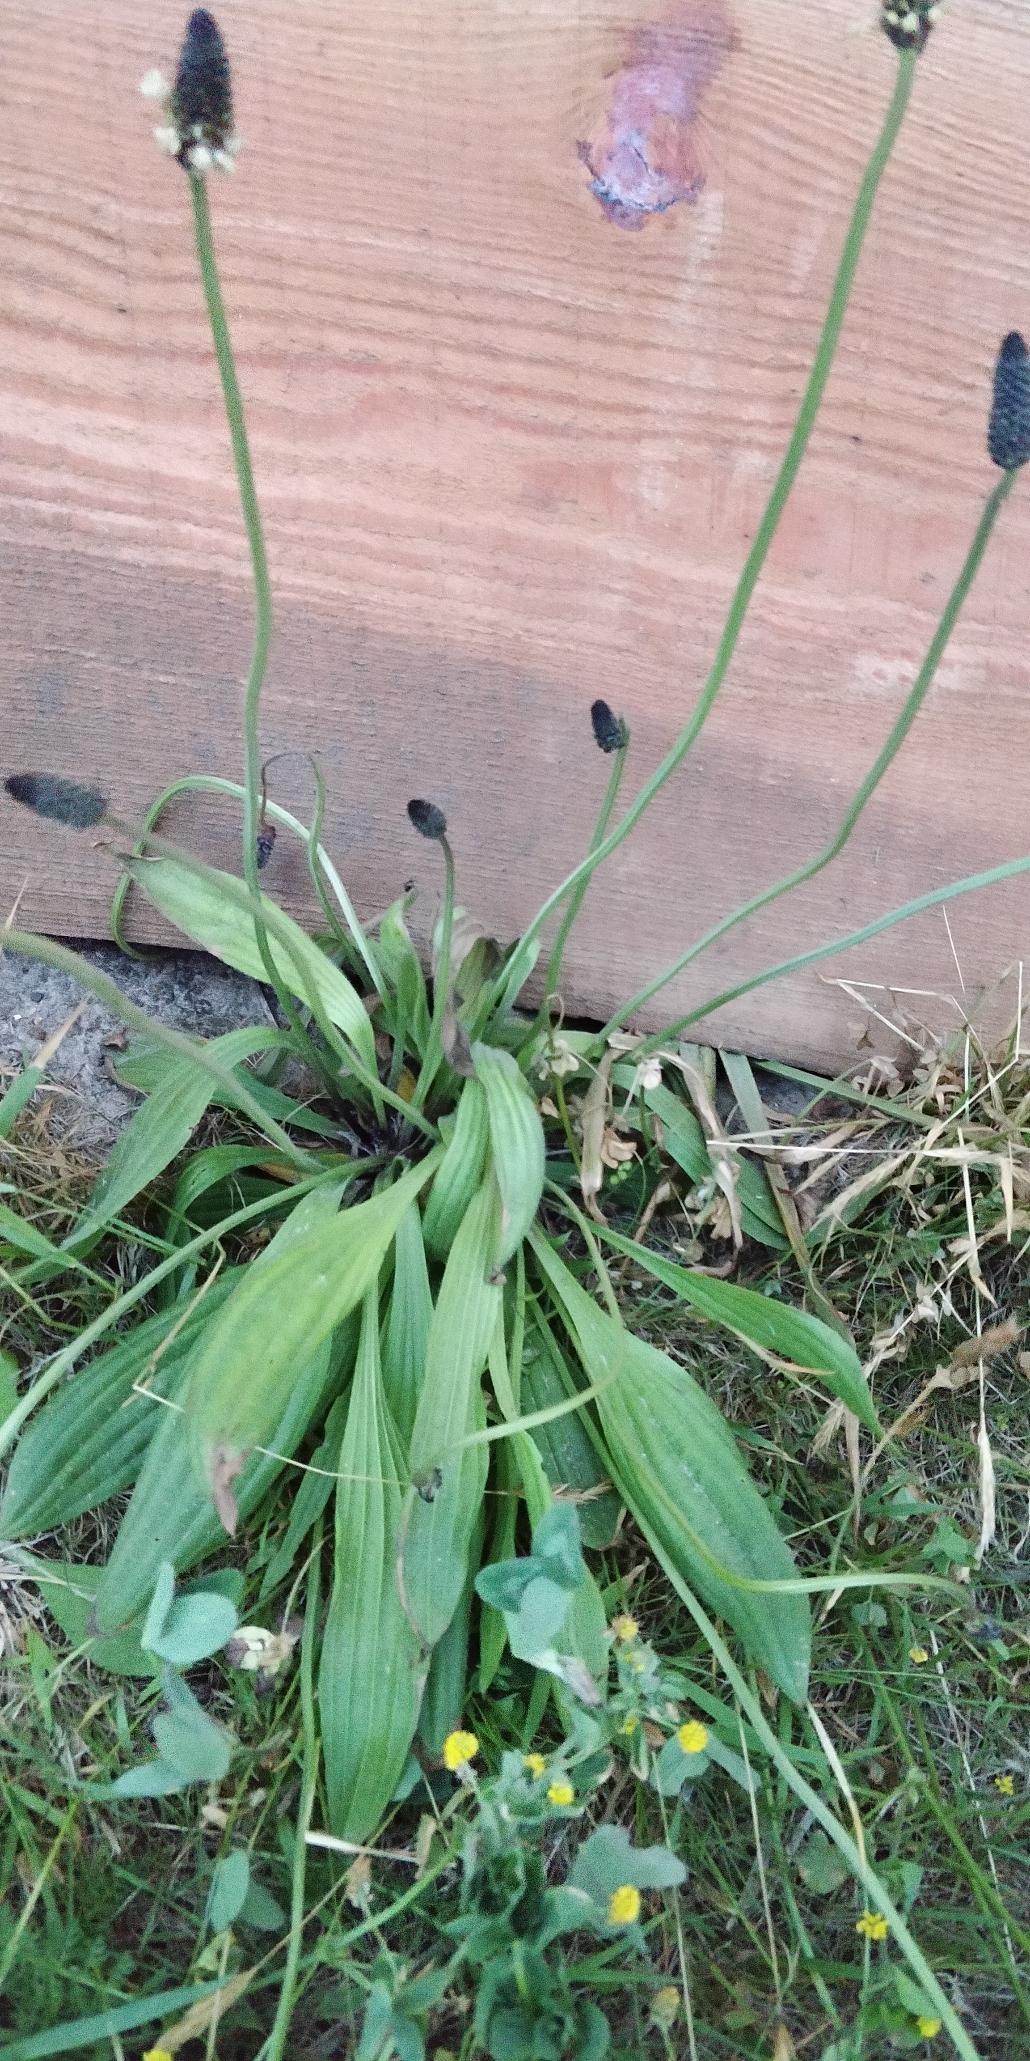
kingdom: Plantae
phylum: Tracheophyta
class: Magnoliopsida
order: Lamiales
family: Plantaginaceae
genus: Plantago
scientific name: Plantago lanceolata
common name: Lancet-vejbred
